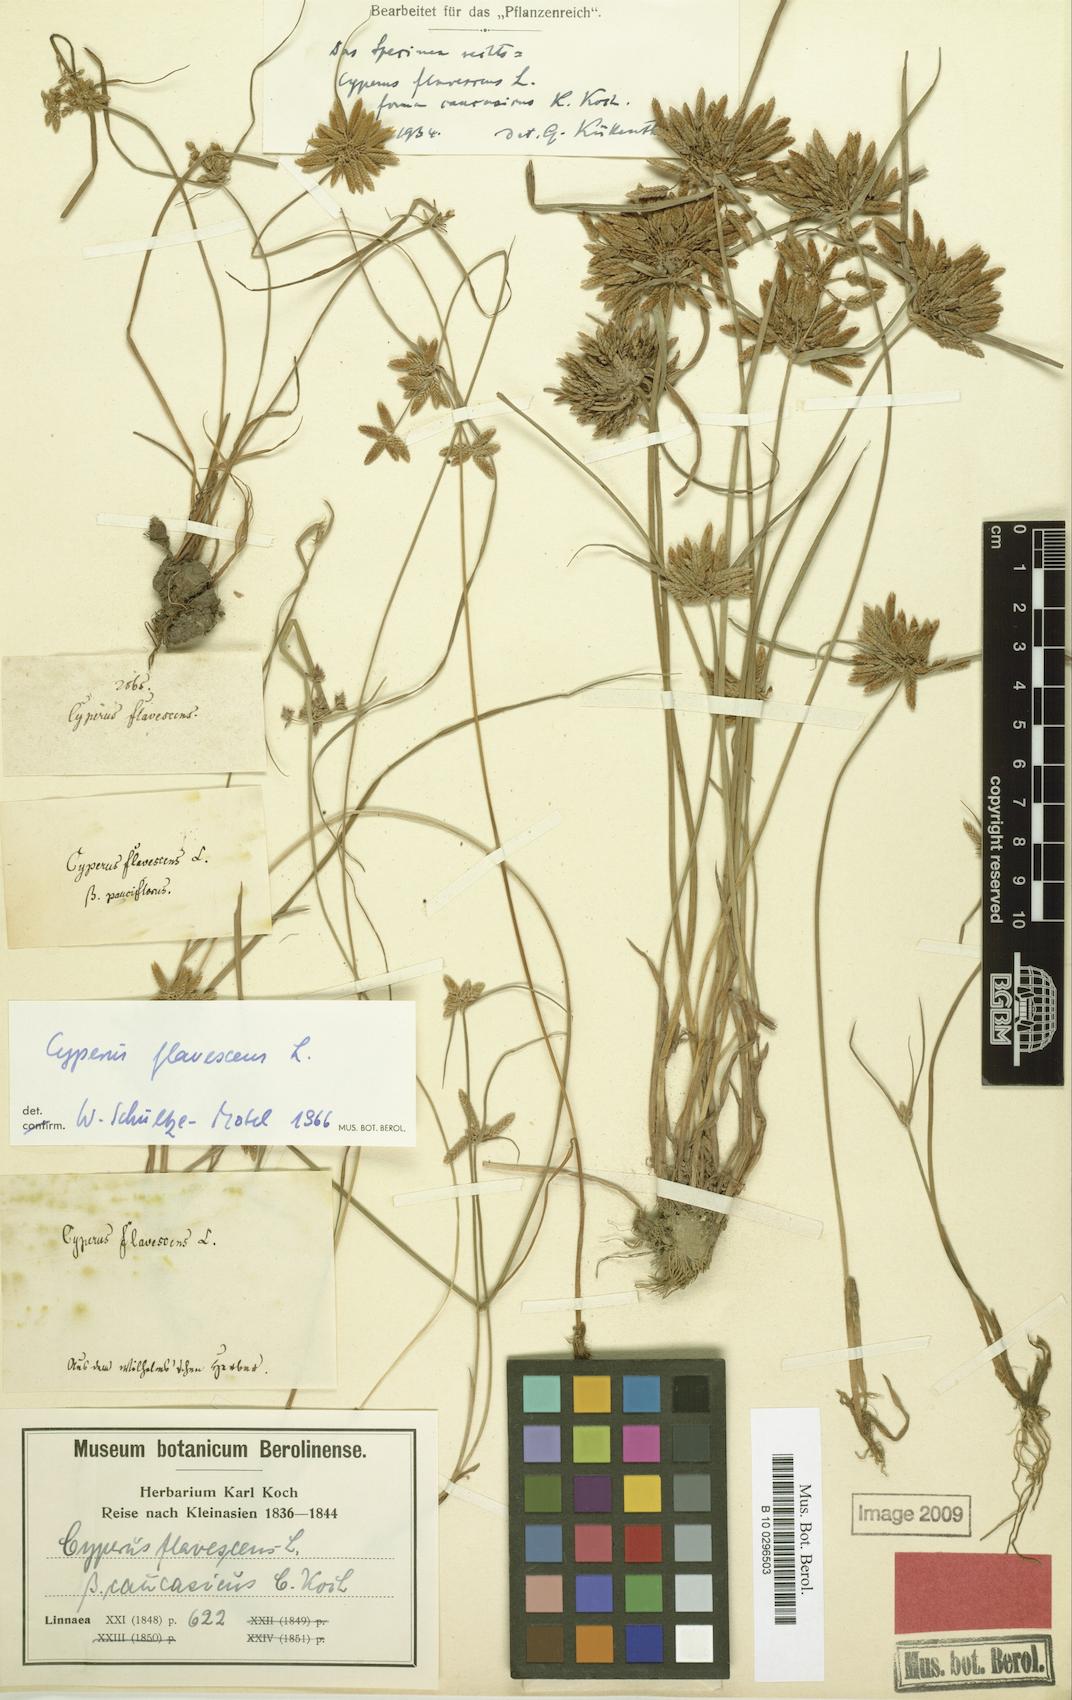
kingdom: Plantae
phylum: Tracheophyta
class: Liliopsida
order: Poales
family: Cyperaceae
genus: Cyperus
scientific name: Cyperus flavescens
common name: Yellow galingale
